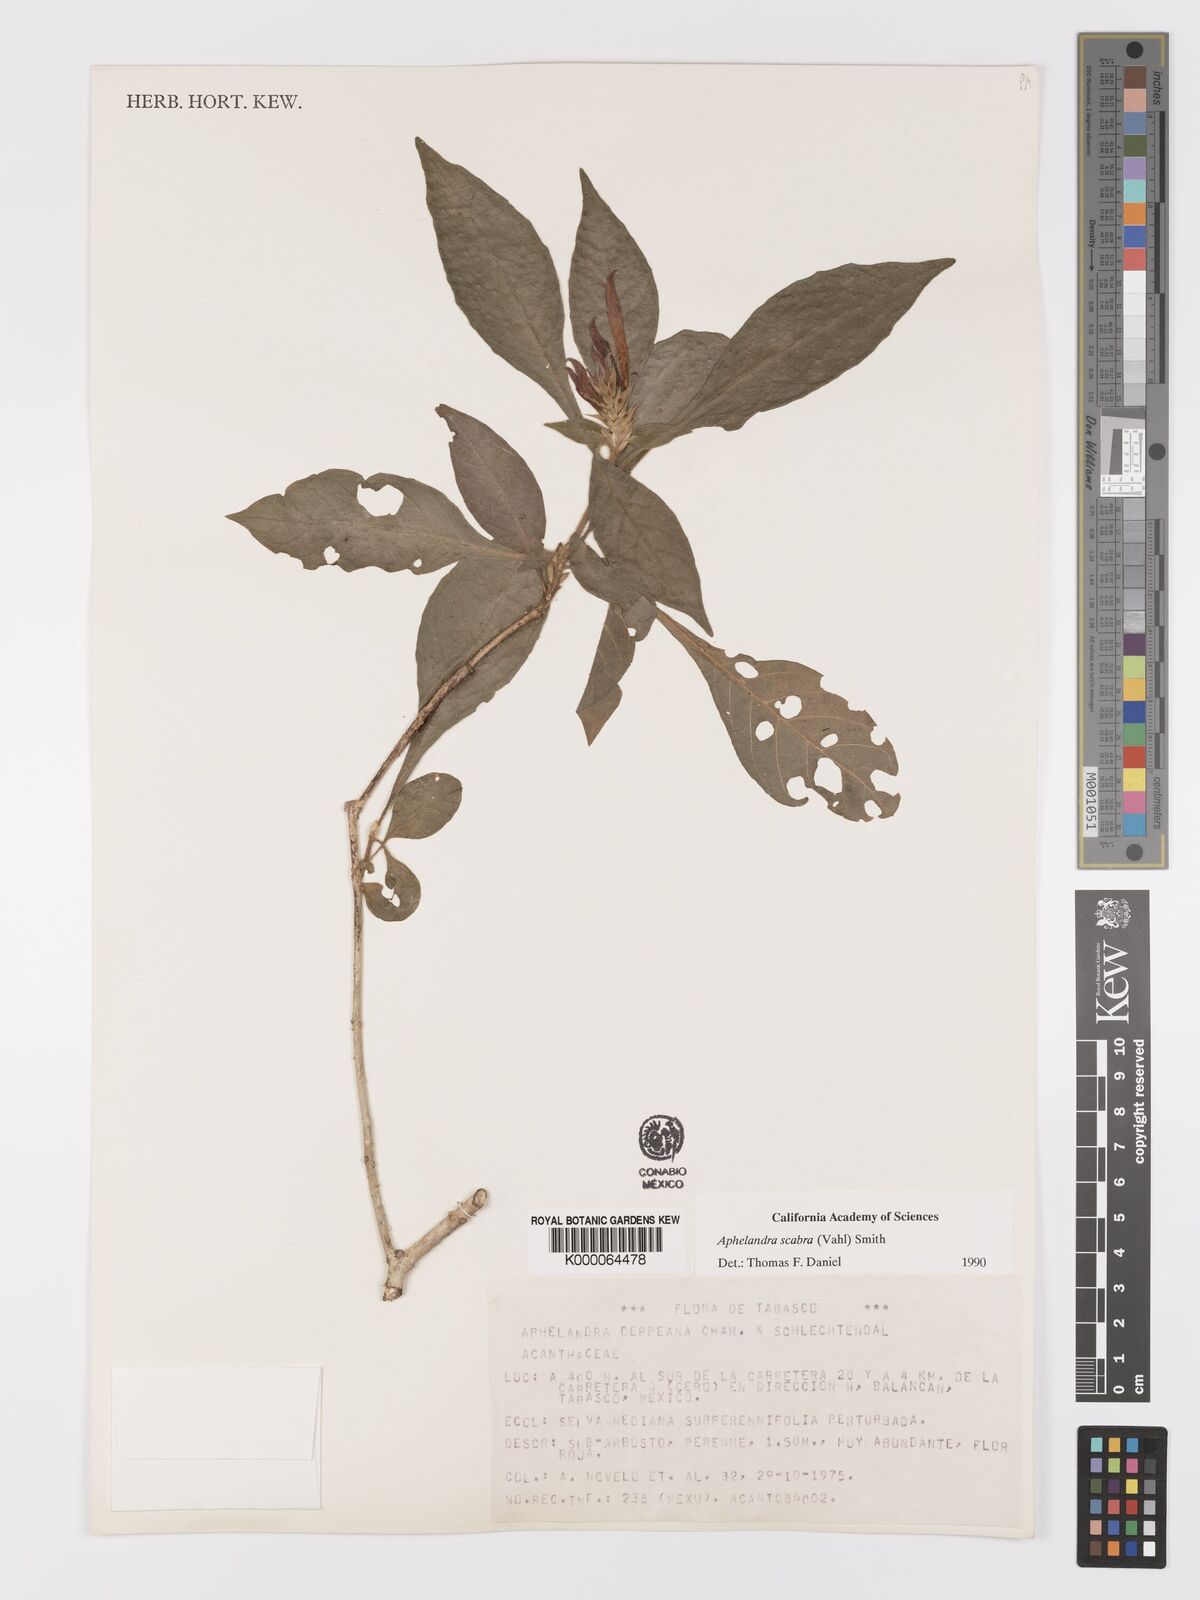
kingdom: Plantae
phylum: Tracheophyta
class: Magnoliopsida
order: Lamiales
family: Acanthaceae
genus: Aphelandra
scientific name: Aphelandra scabra
